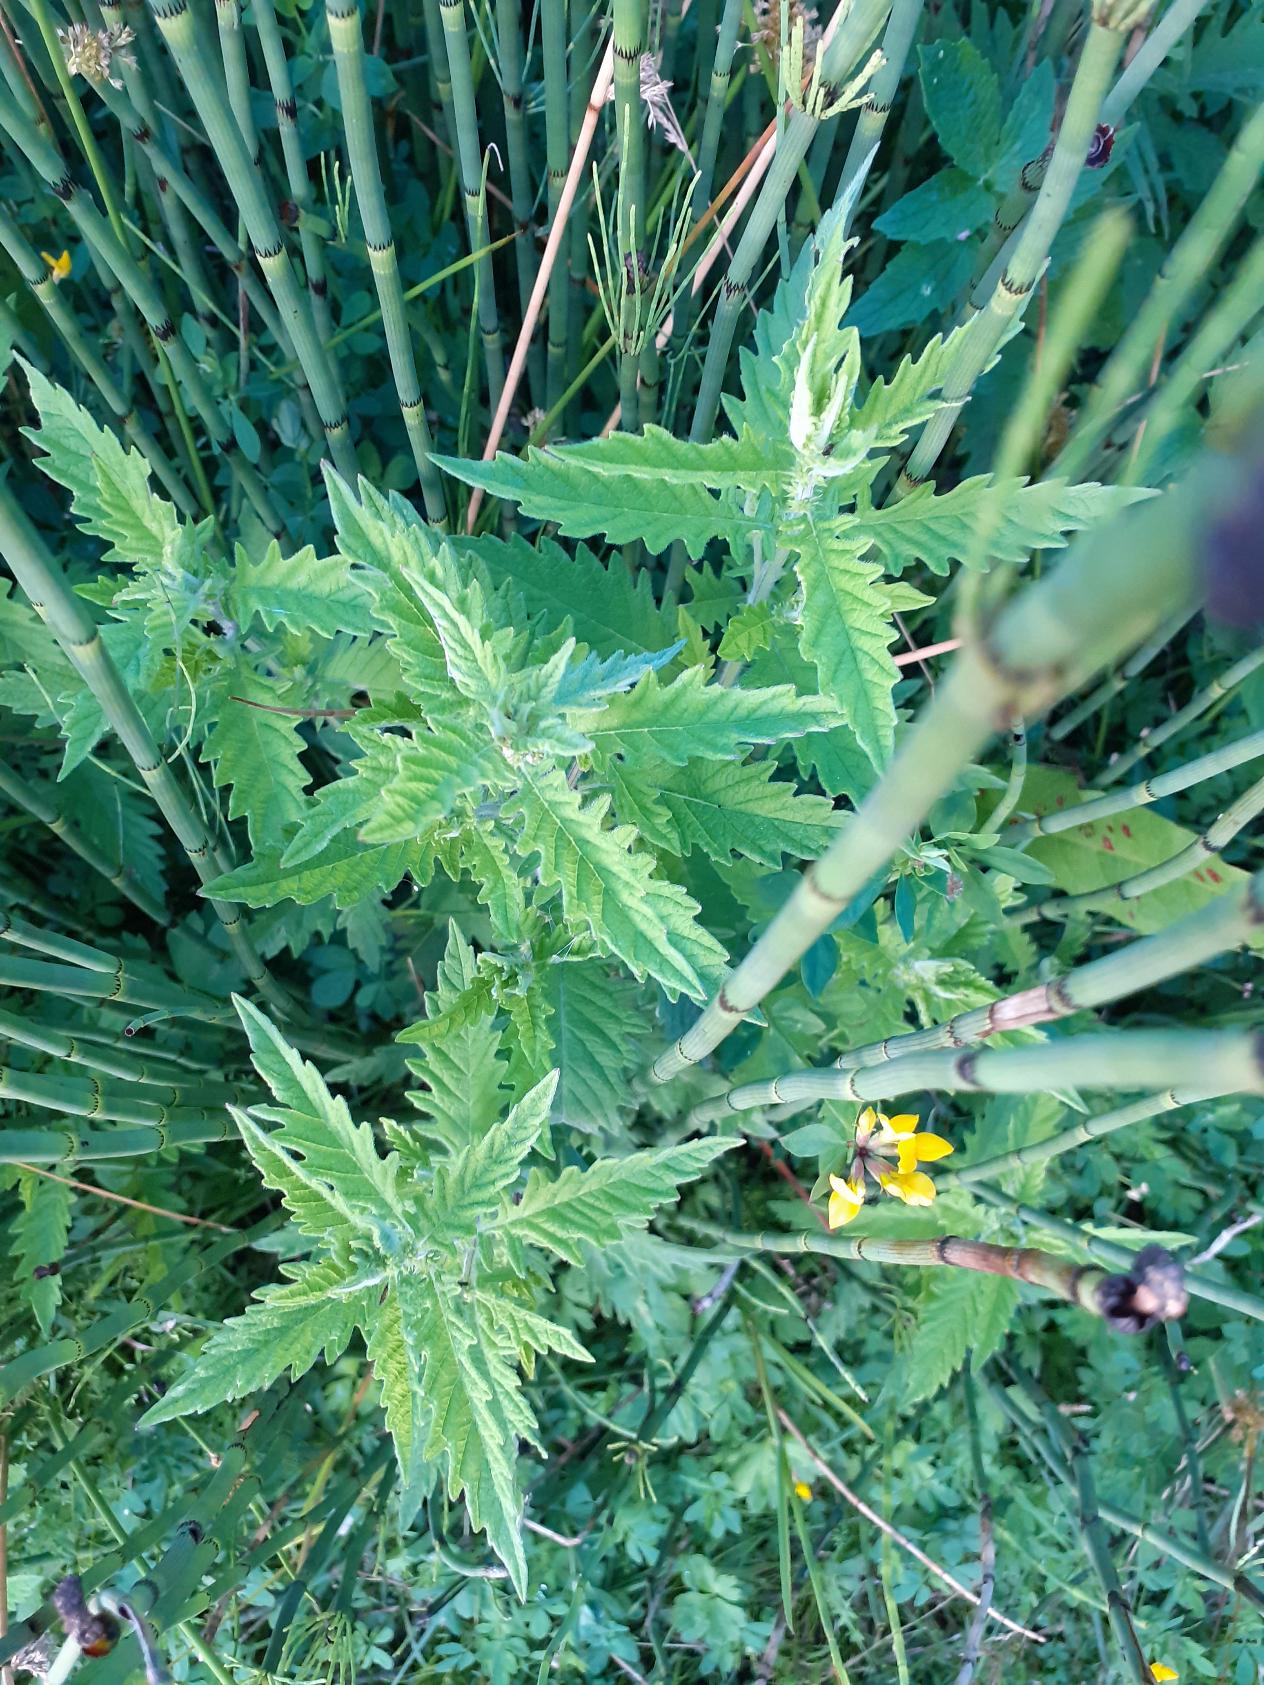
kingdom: Plantae
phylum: Tracheophyta
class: Magnoliopsida
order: Lamiales
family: Lamiaceae
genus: Lycopus
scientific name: Lycopus europaeus
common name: Sværtevæld
